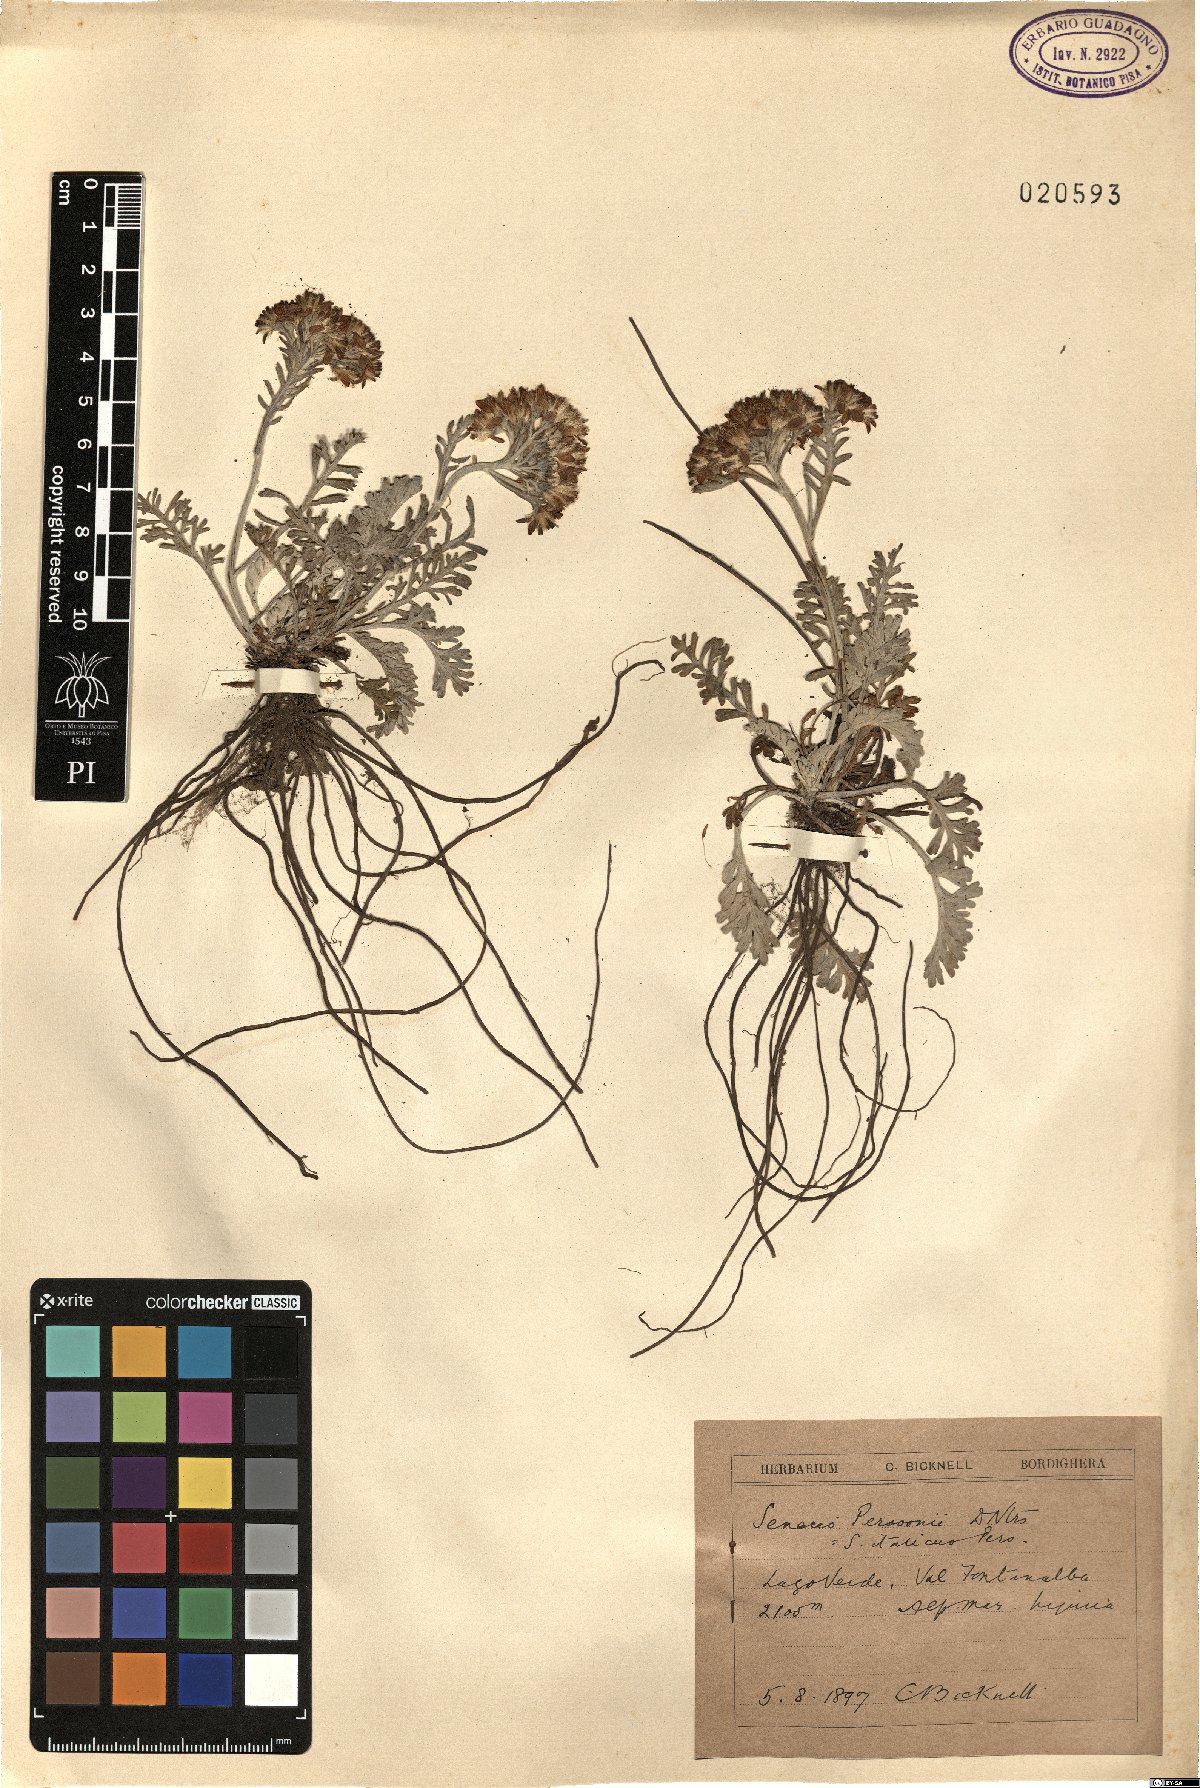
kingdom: Plantae
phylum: Tracheophyta
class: Magnoliopsida
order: Asterales
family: Asteraceae
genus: Jacobaea
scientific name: Jacobaea persoonii
